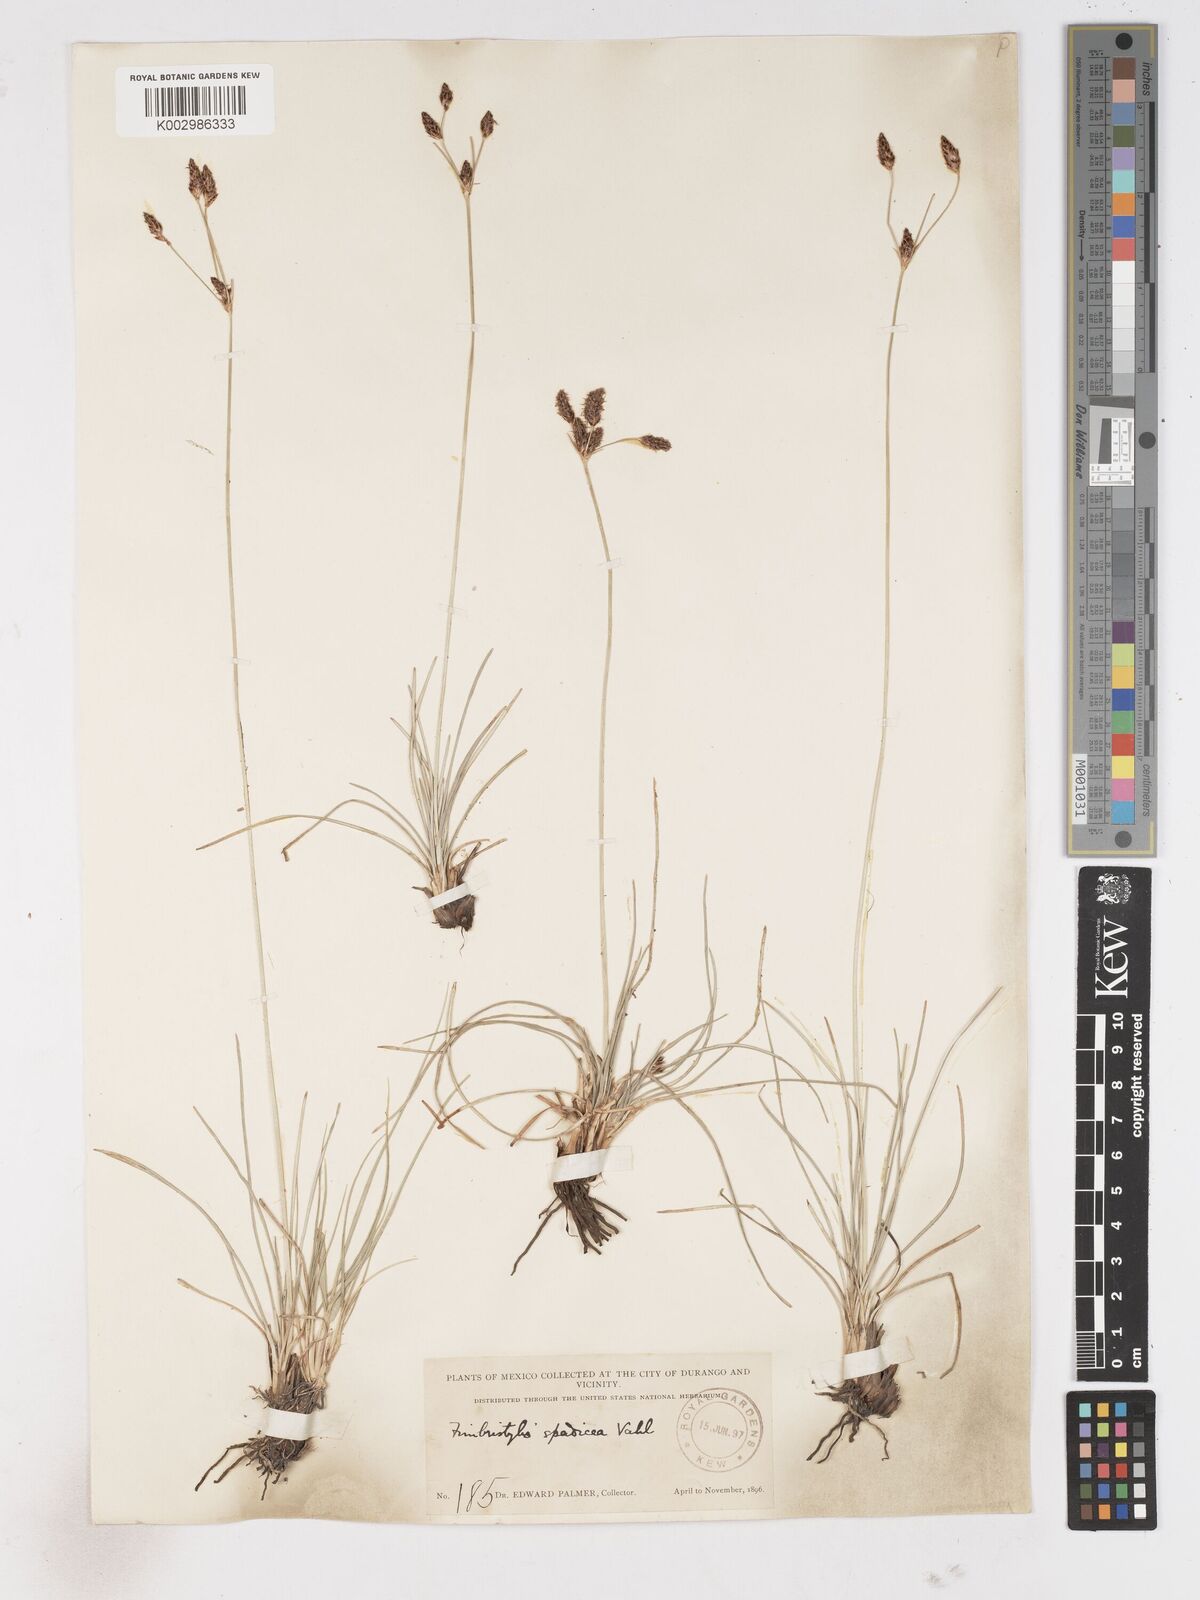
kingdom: Plantae
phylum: Tracheophyta
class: Liliopsida
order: Poales
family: Cyperaceae
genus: Fimbristylis
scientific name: Fimbristylis spadicea
